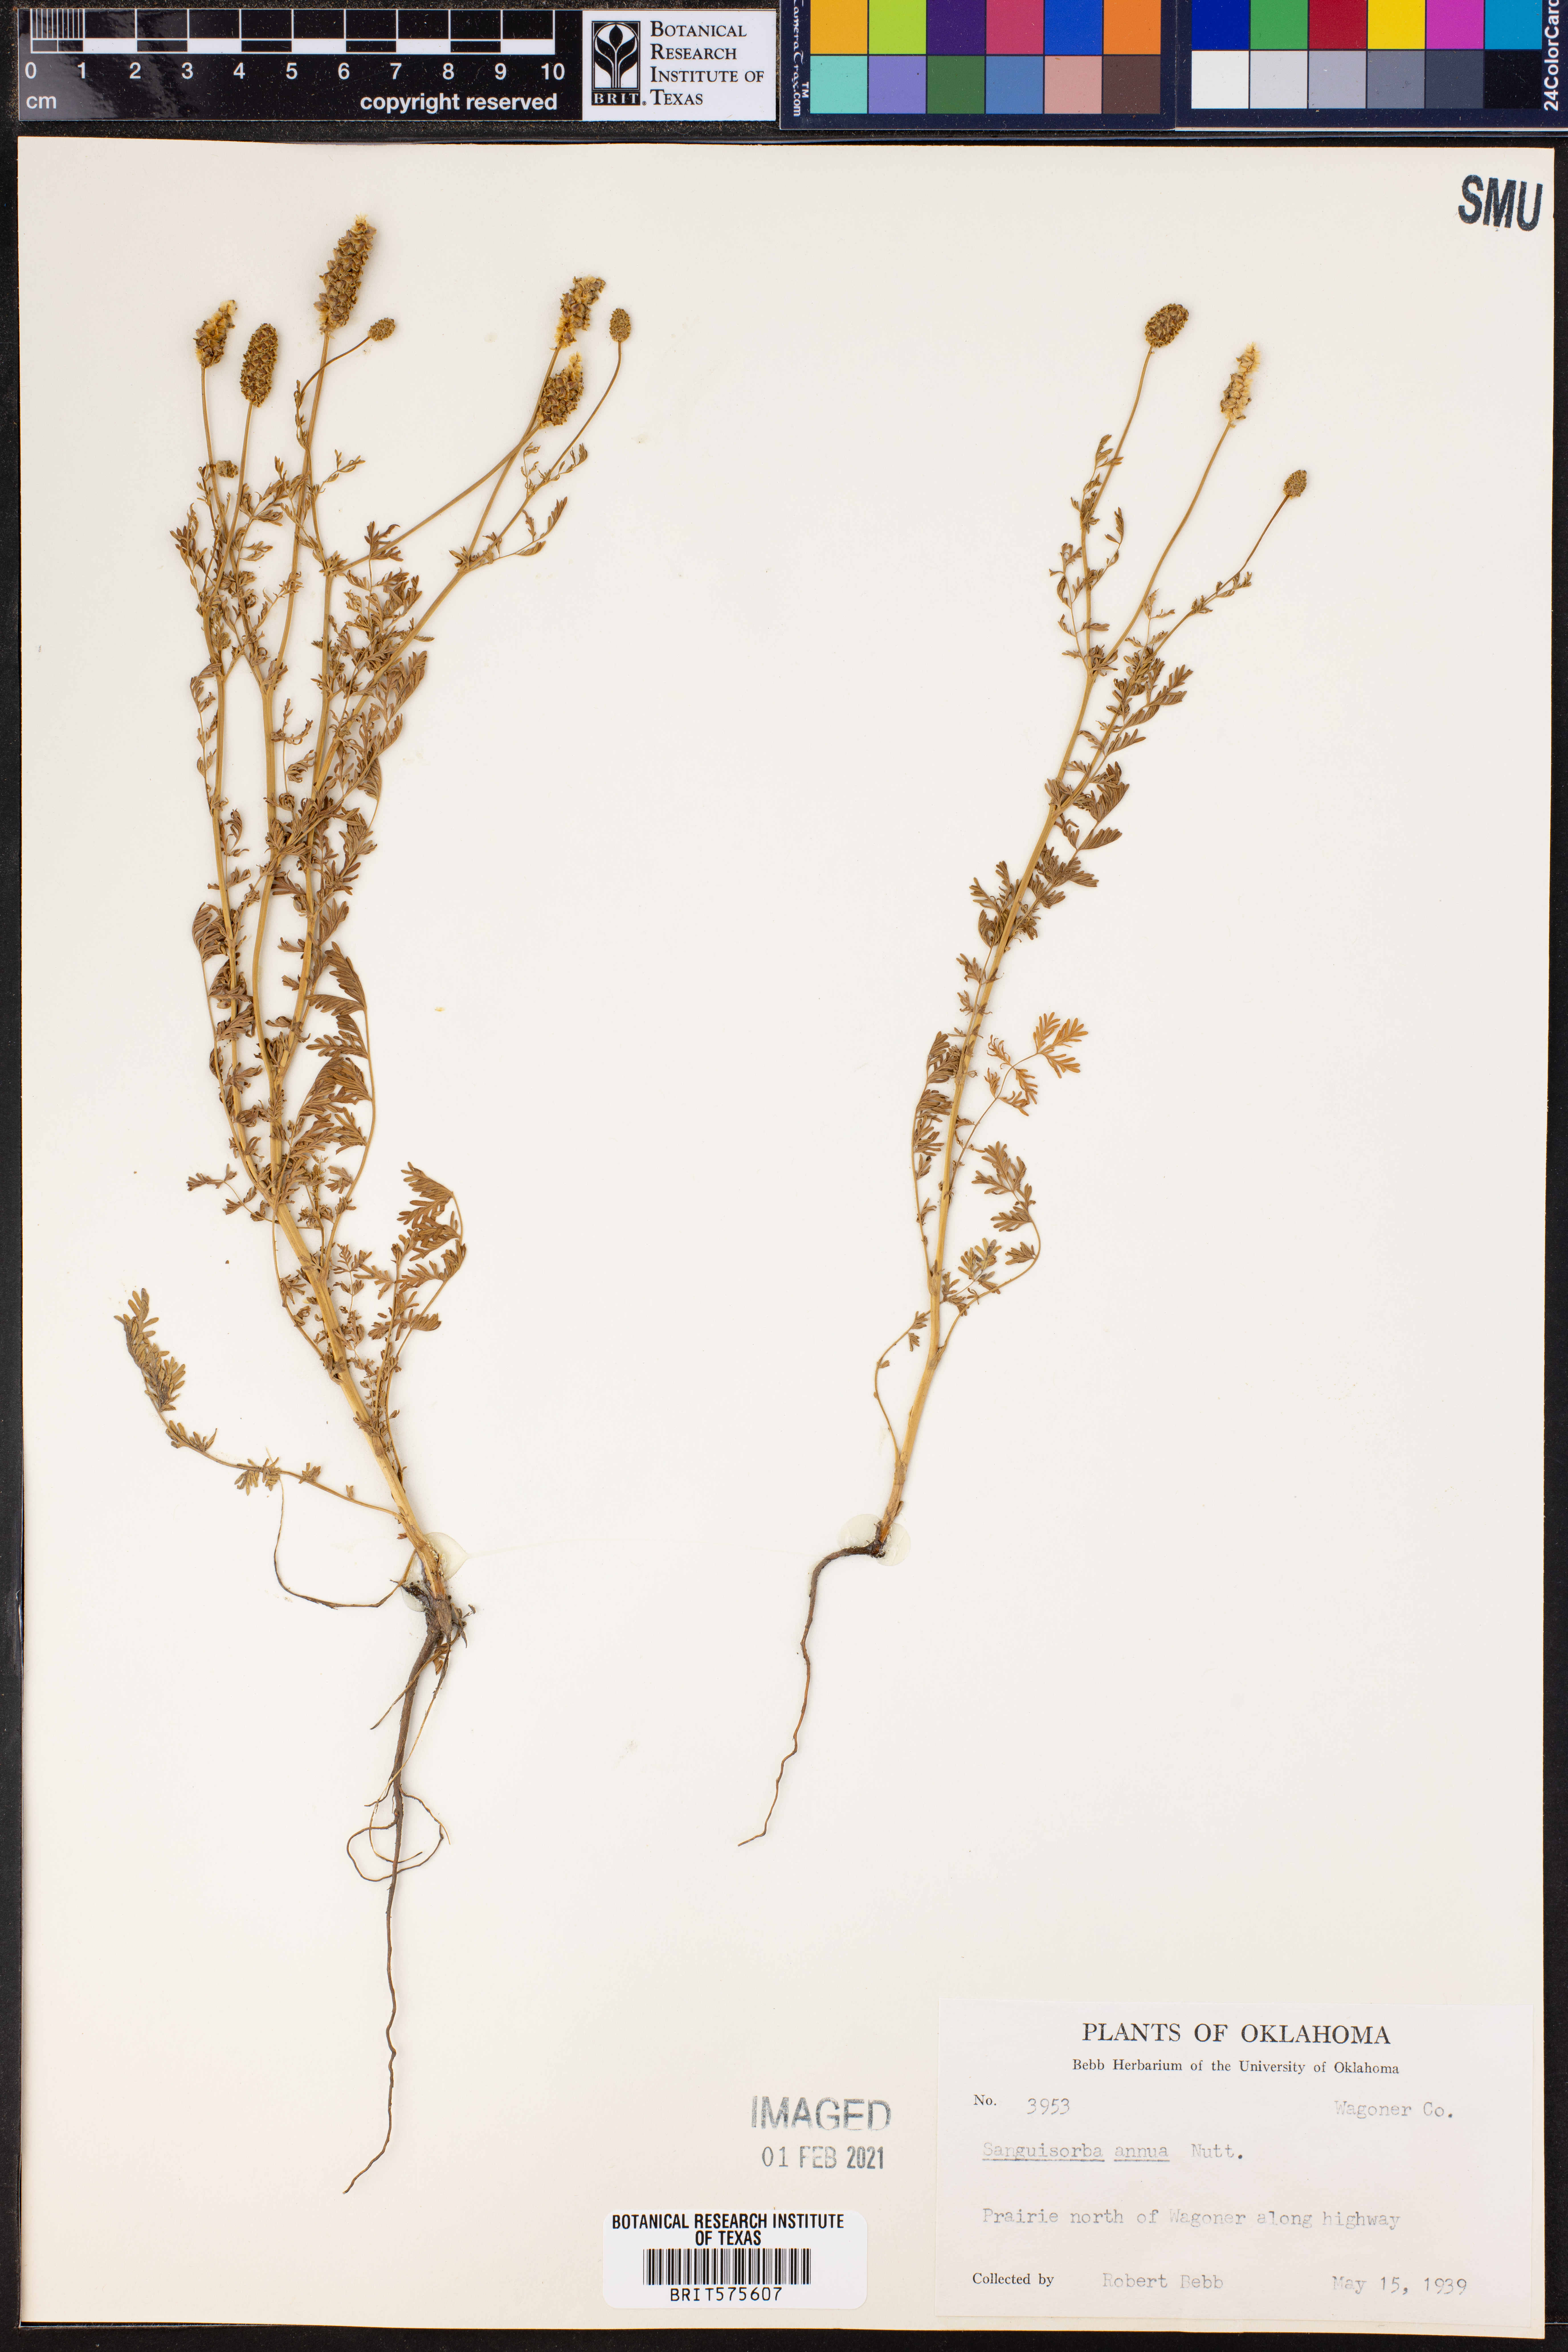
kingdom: Plantae
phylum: Tracheophyta
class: Magnoliopsida
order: Rosales
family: Rosaceae
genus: Poteridium
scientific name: Poteridium annuum
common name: Annual burnet
